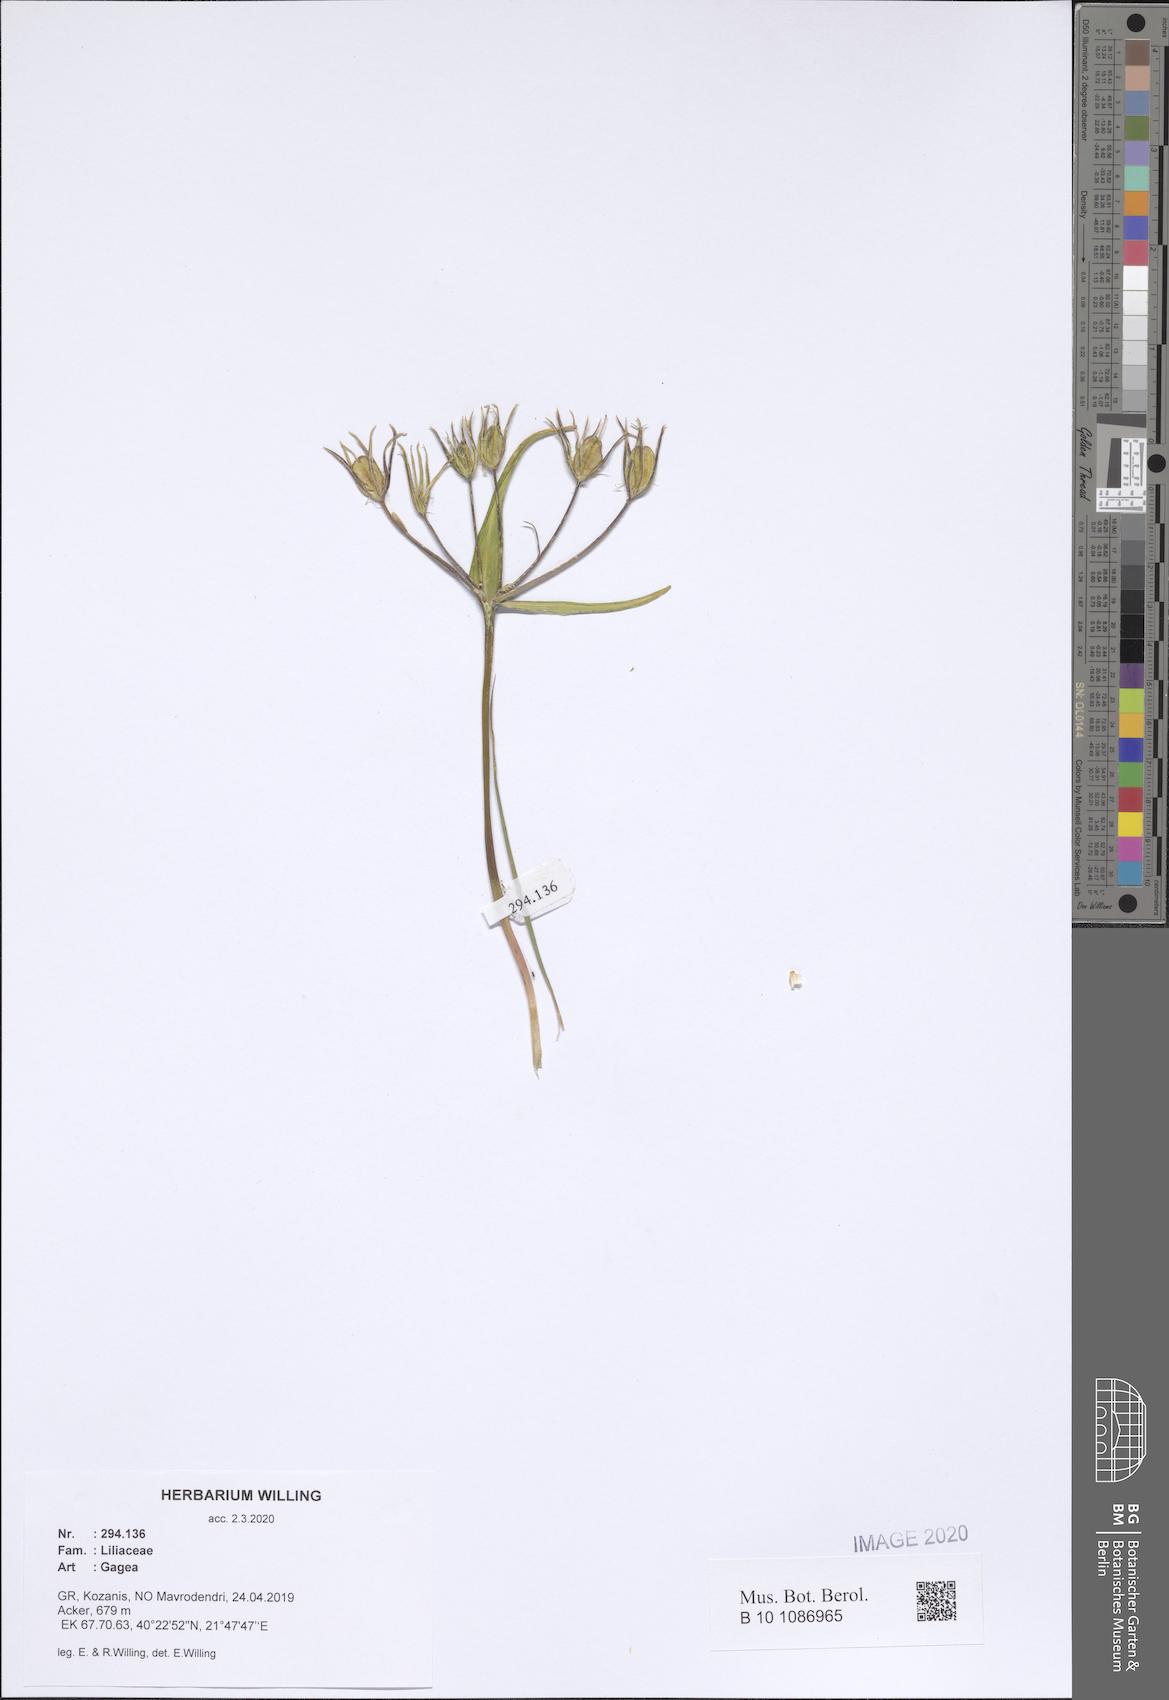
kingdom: Plantae
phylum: Tracheophyta
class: Liliopsida
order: Liliales
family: Liliaceae
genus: Gagea
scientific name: Gagea
